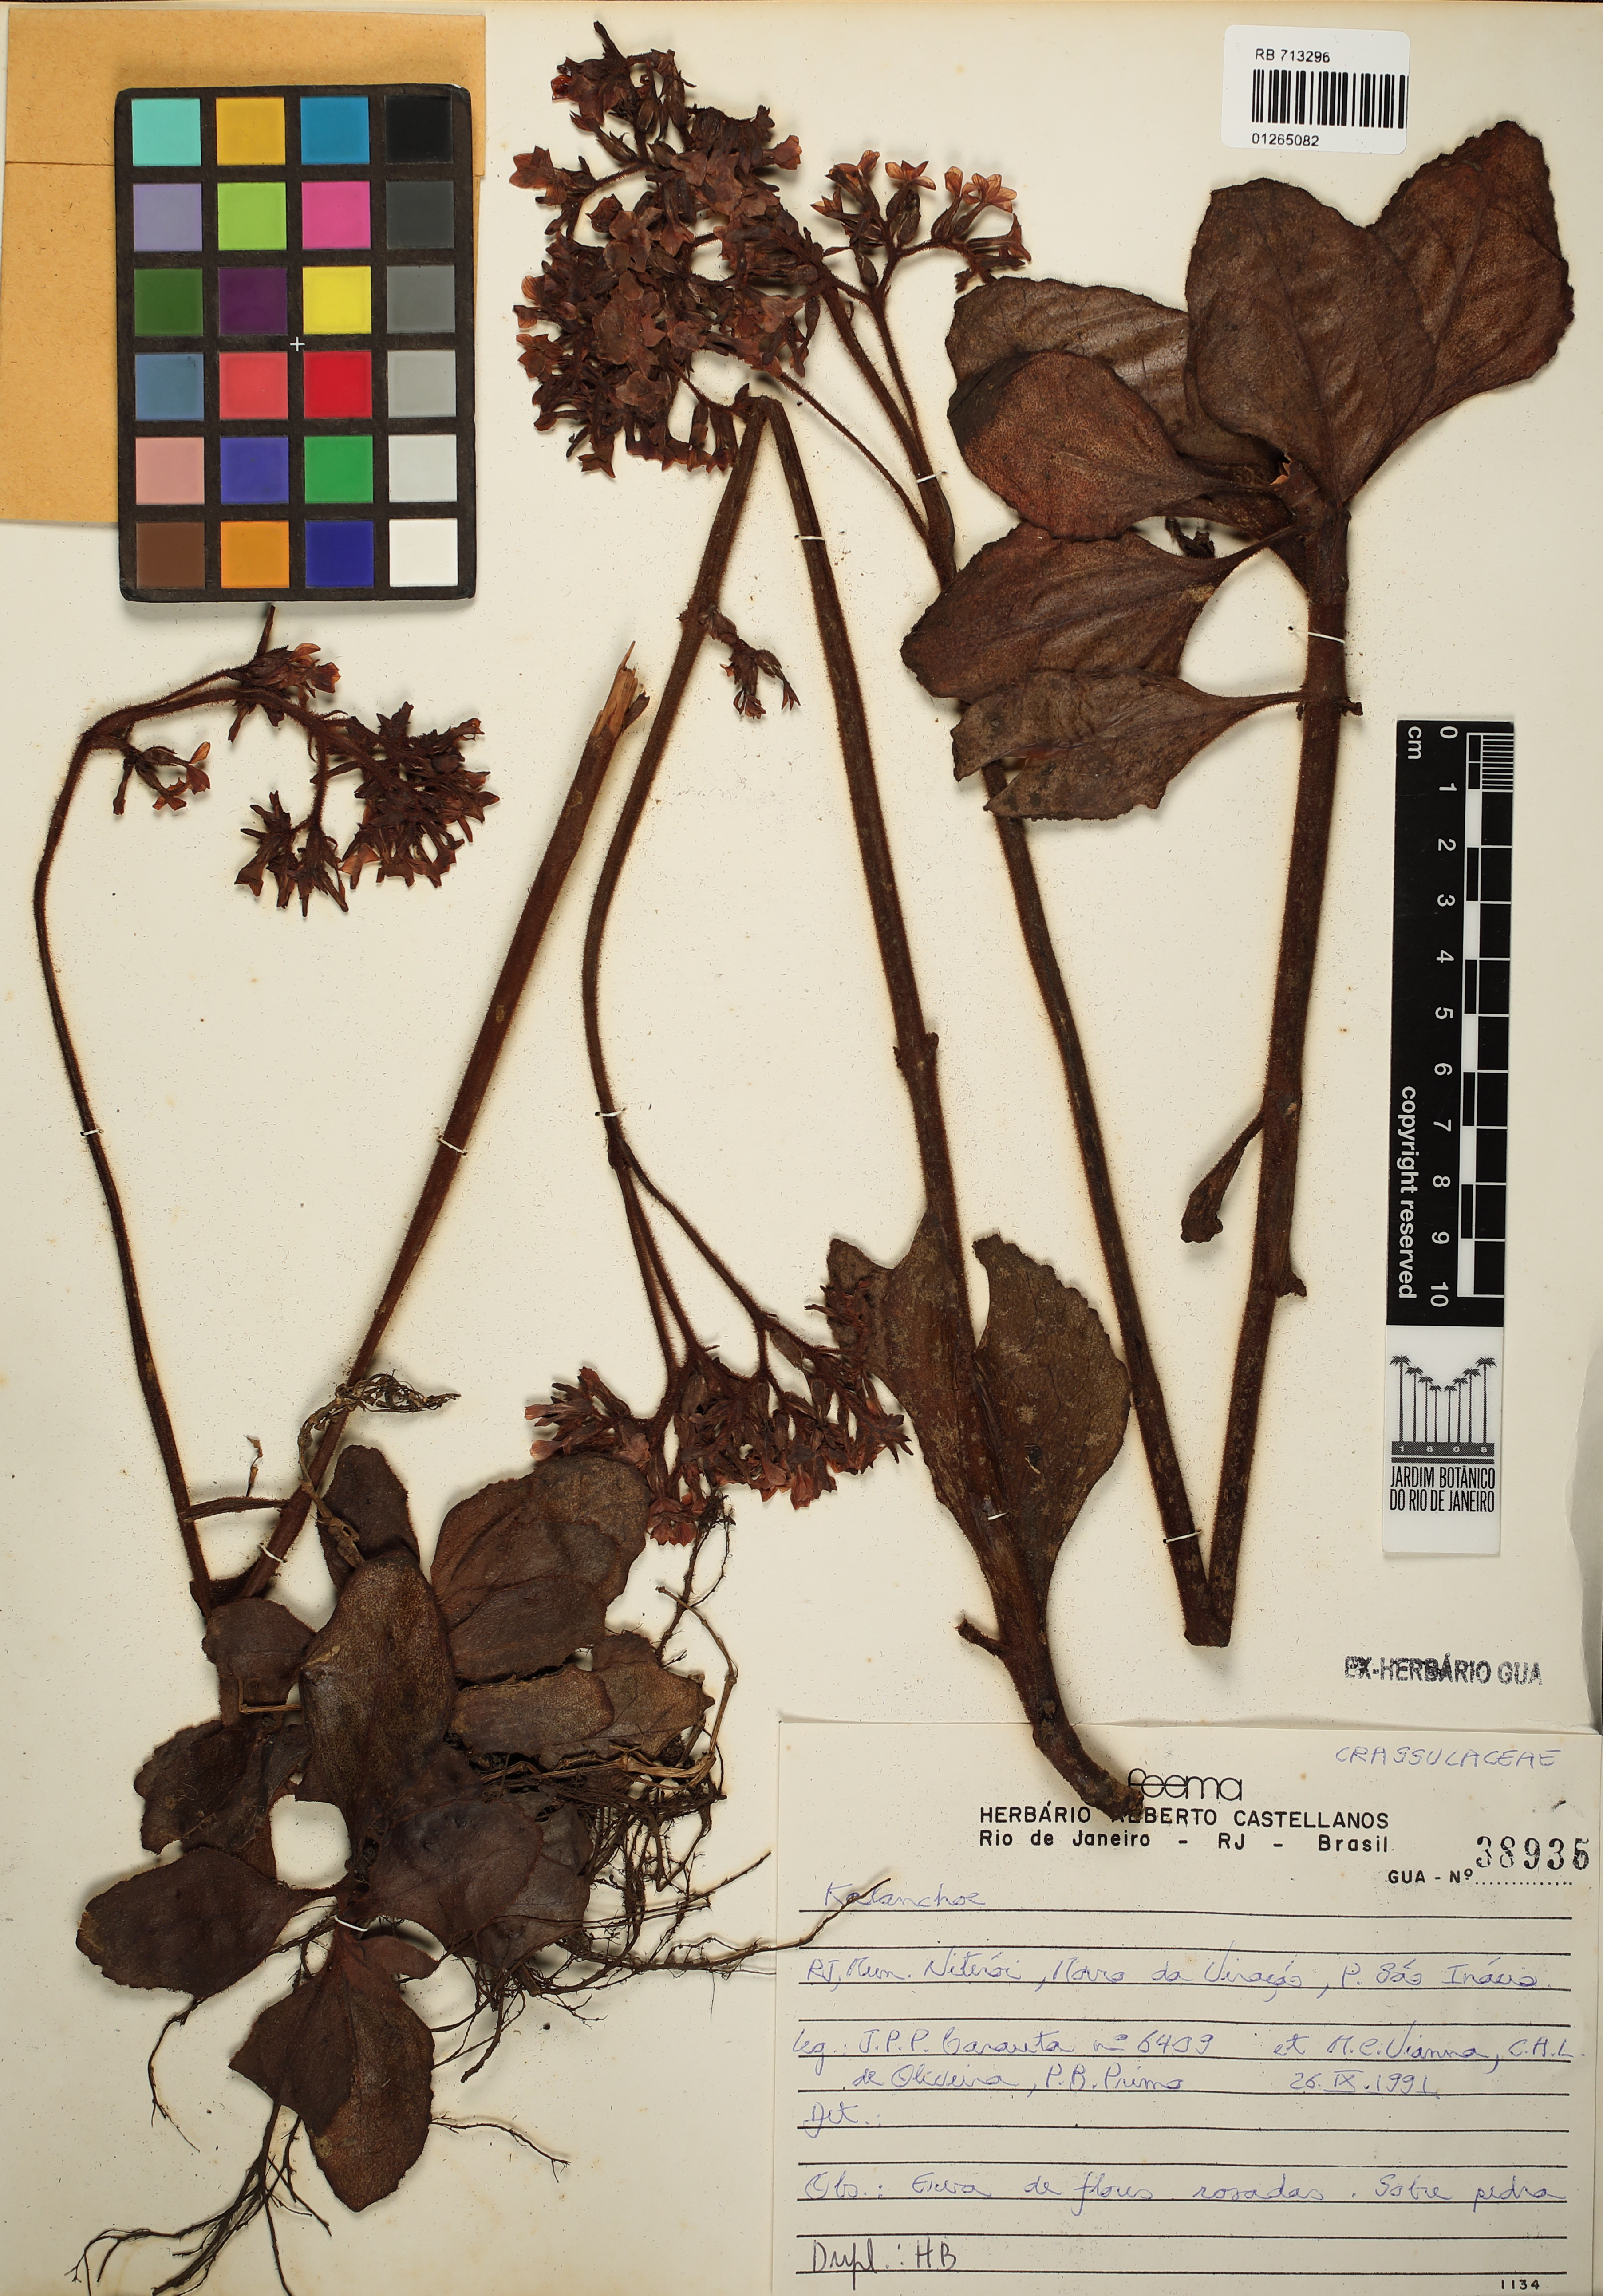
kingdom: Plantae
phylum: Tracheophyta
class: Magnoliopsida
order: Saxifragales
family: Crassulaceae
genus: Kalanchoe
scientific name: Kalanchoe
